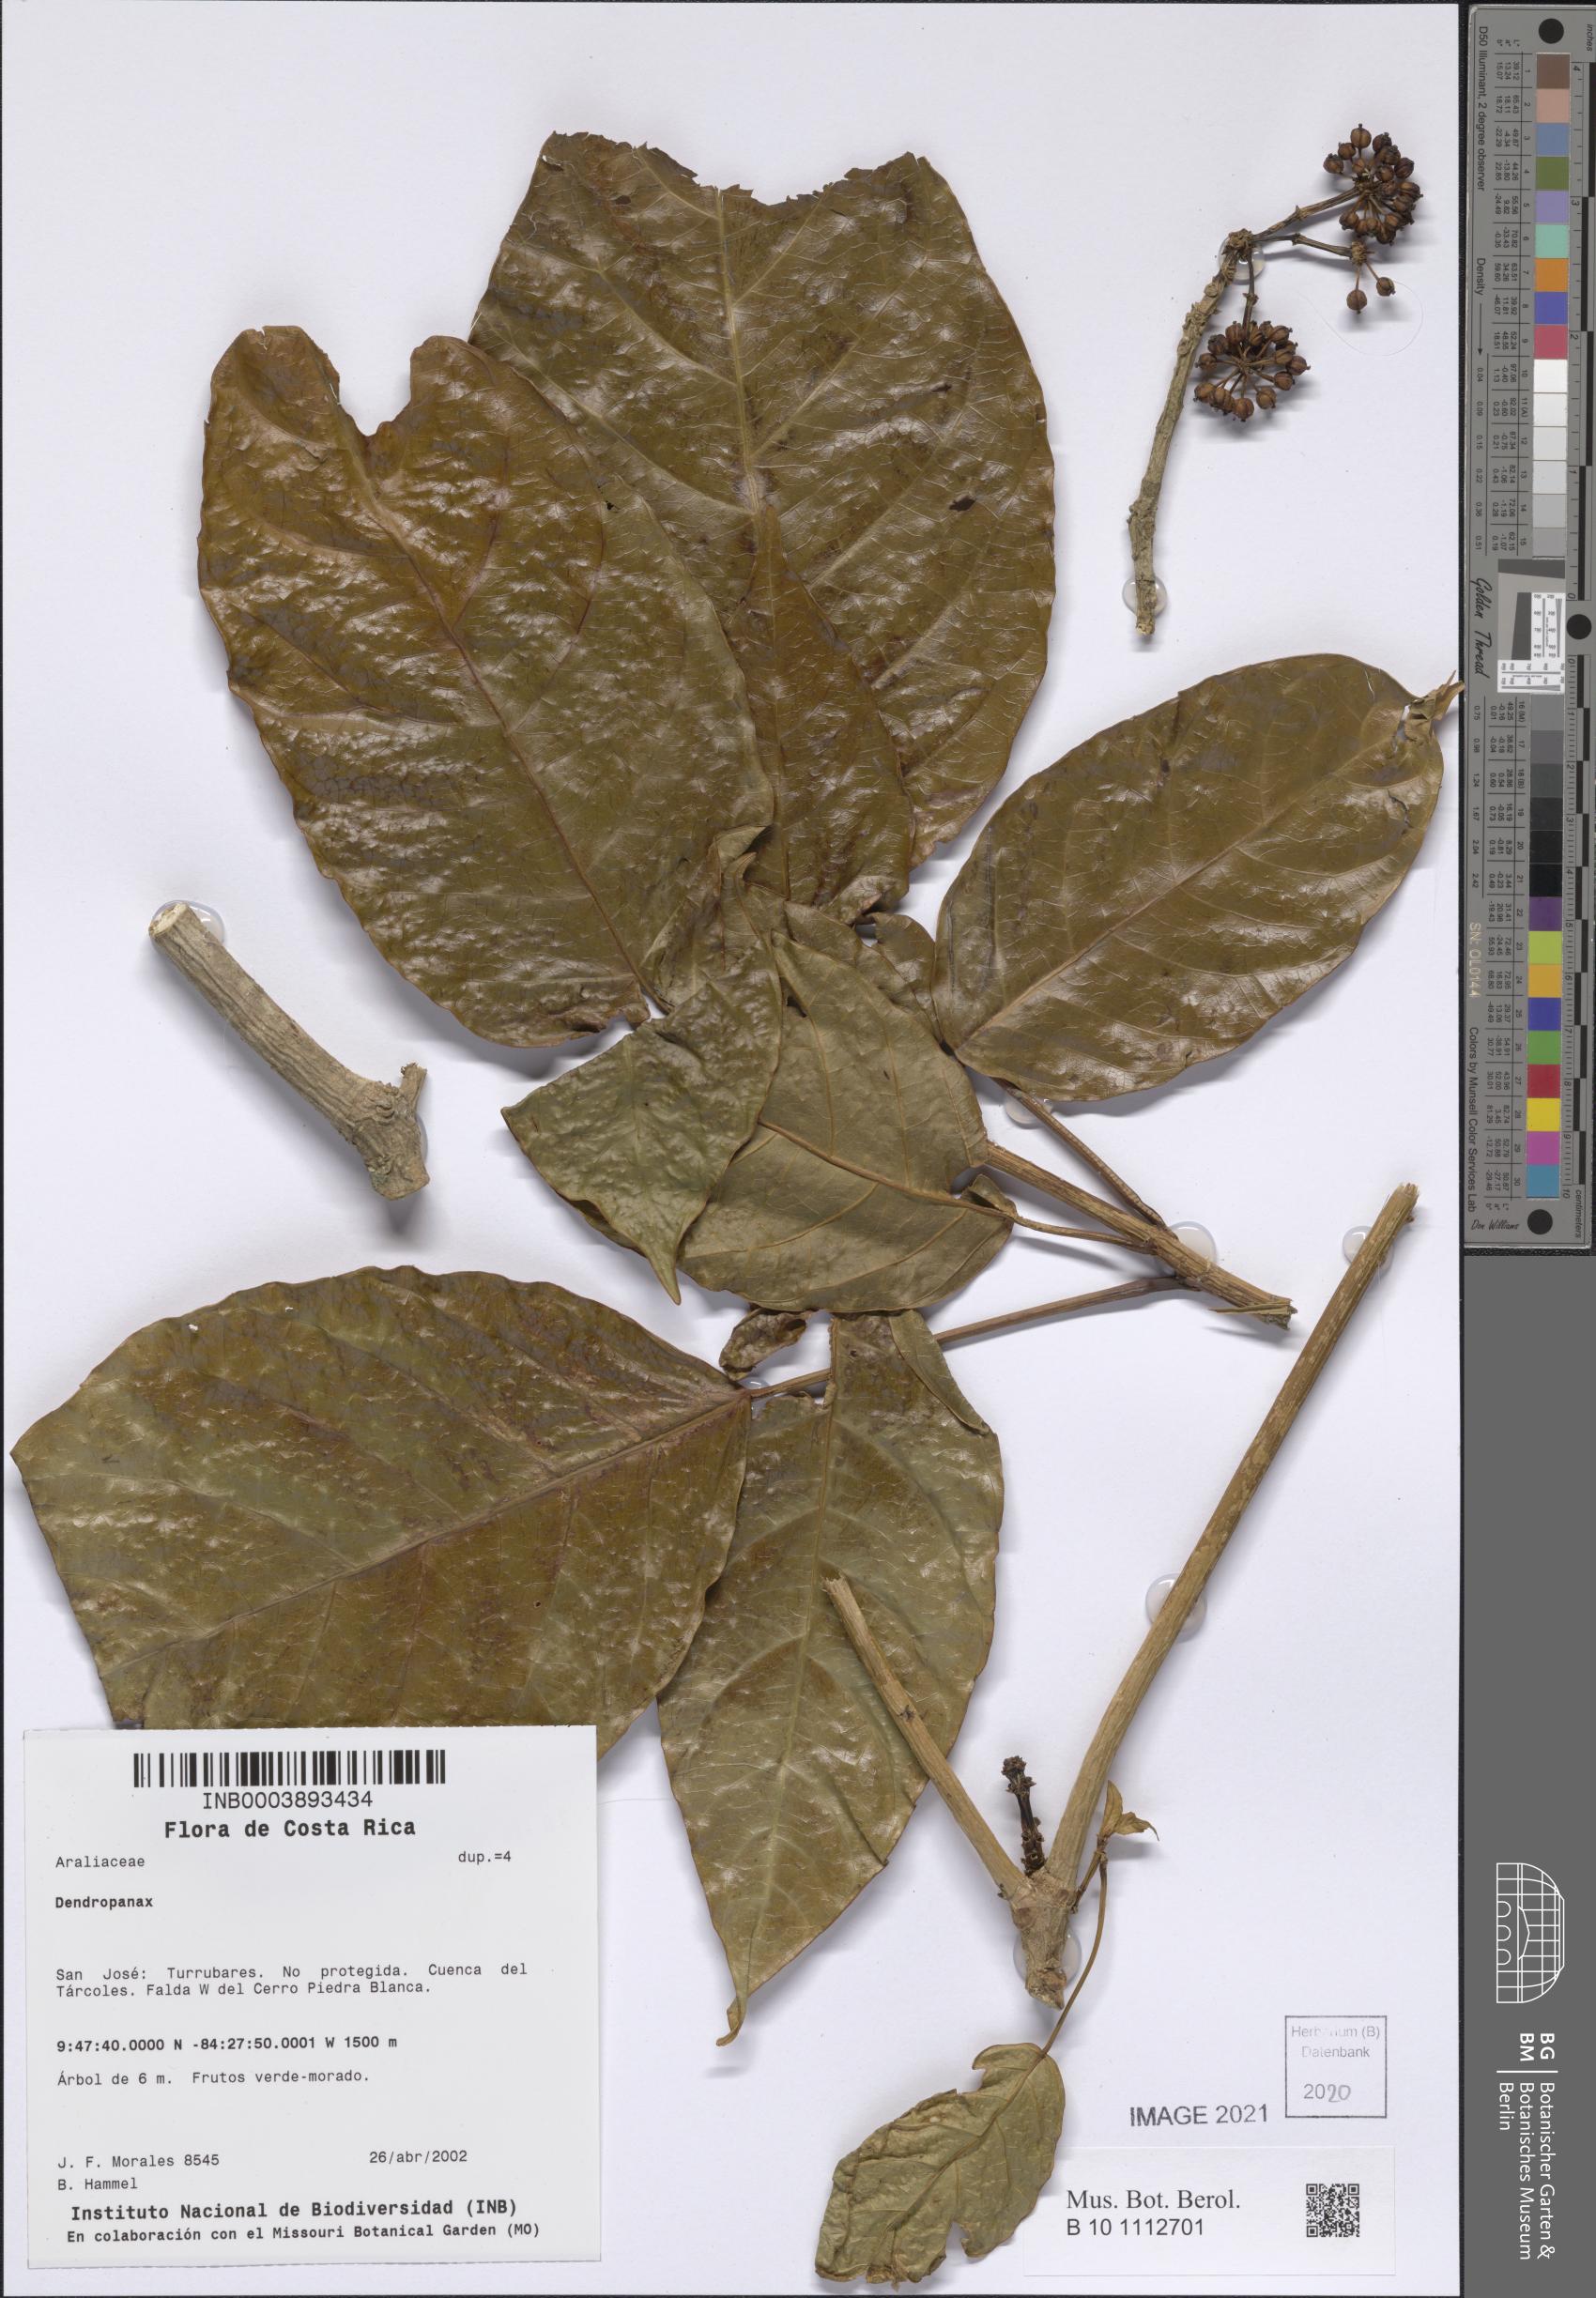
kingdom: Plantae
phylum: Tracheophyta
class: Magnoliopsida
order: Apiales
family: Araliaceae
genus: Dendropanax
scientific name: Dendropanax
